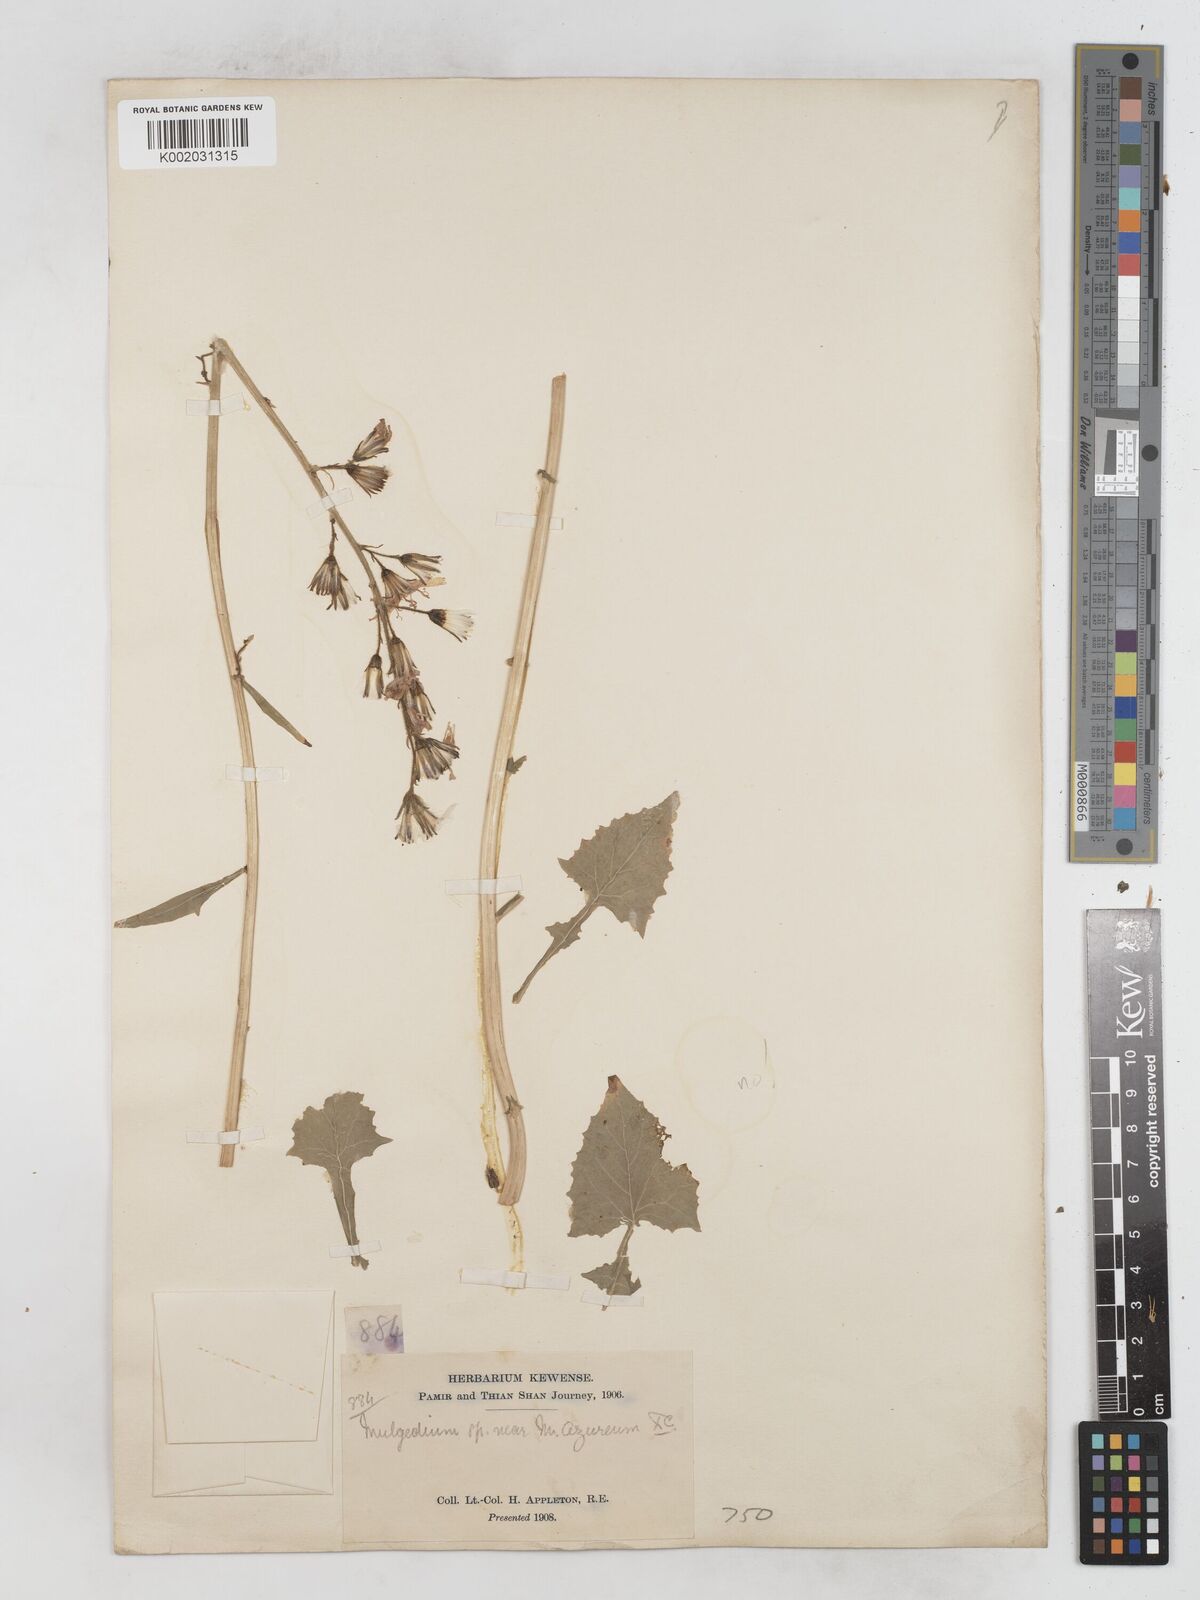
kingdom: Plantae
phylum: Tracheophyta
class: Magnoliopsida
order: Asterales
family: Asteraceae
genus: Cicerbita
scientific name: Cicerbita azurea
